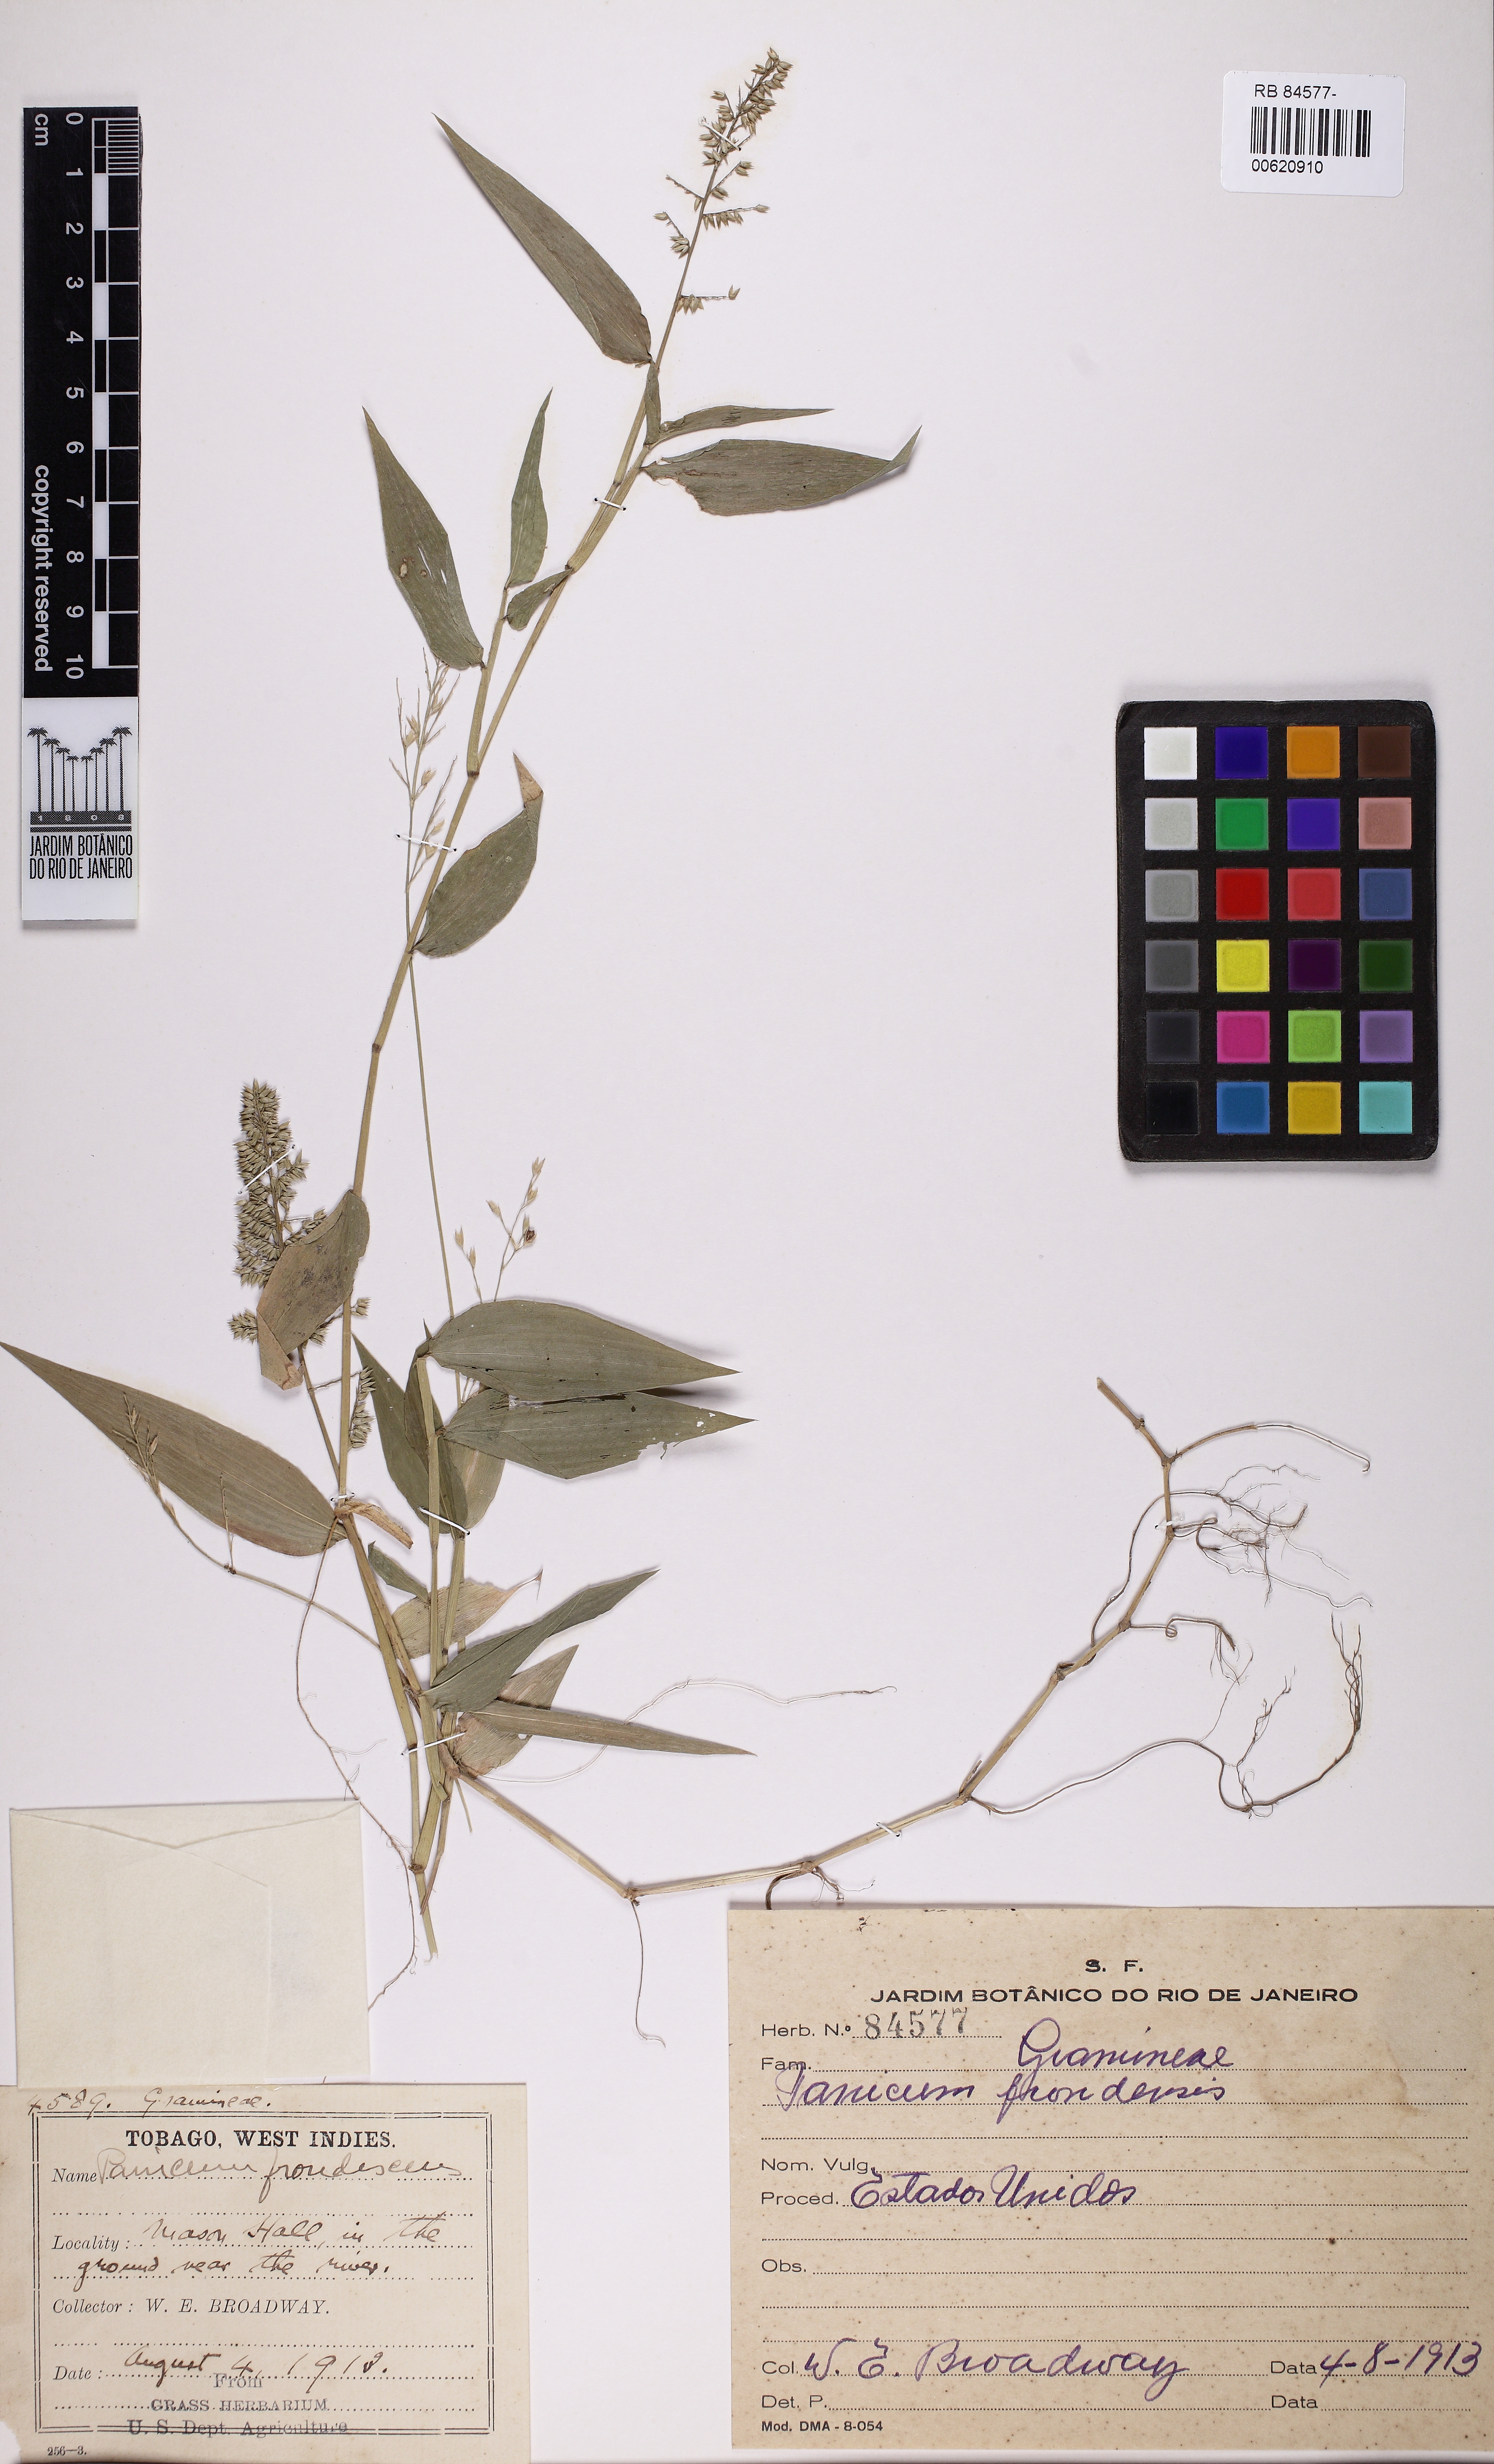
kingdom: Plantae
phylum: Tracheophyta
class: Liliopsida
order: Poales
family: Poaceae
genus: Ocellochloa
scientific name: Ocellochloa stolonifera
